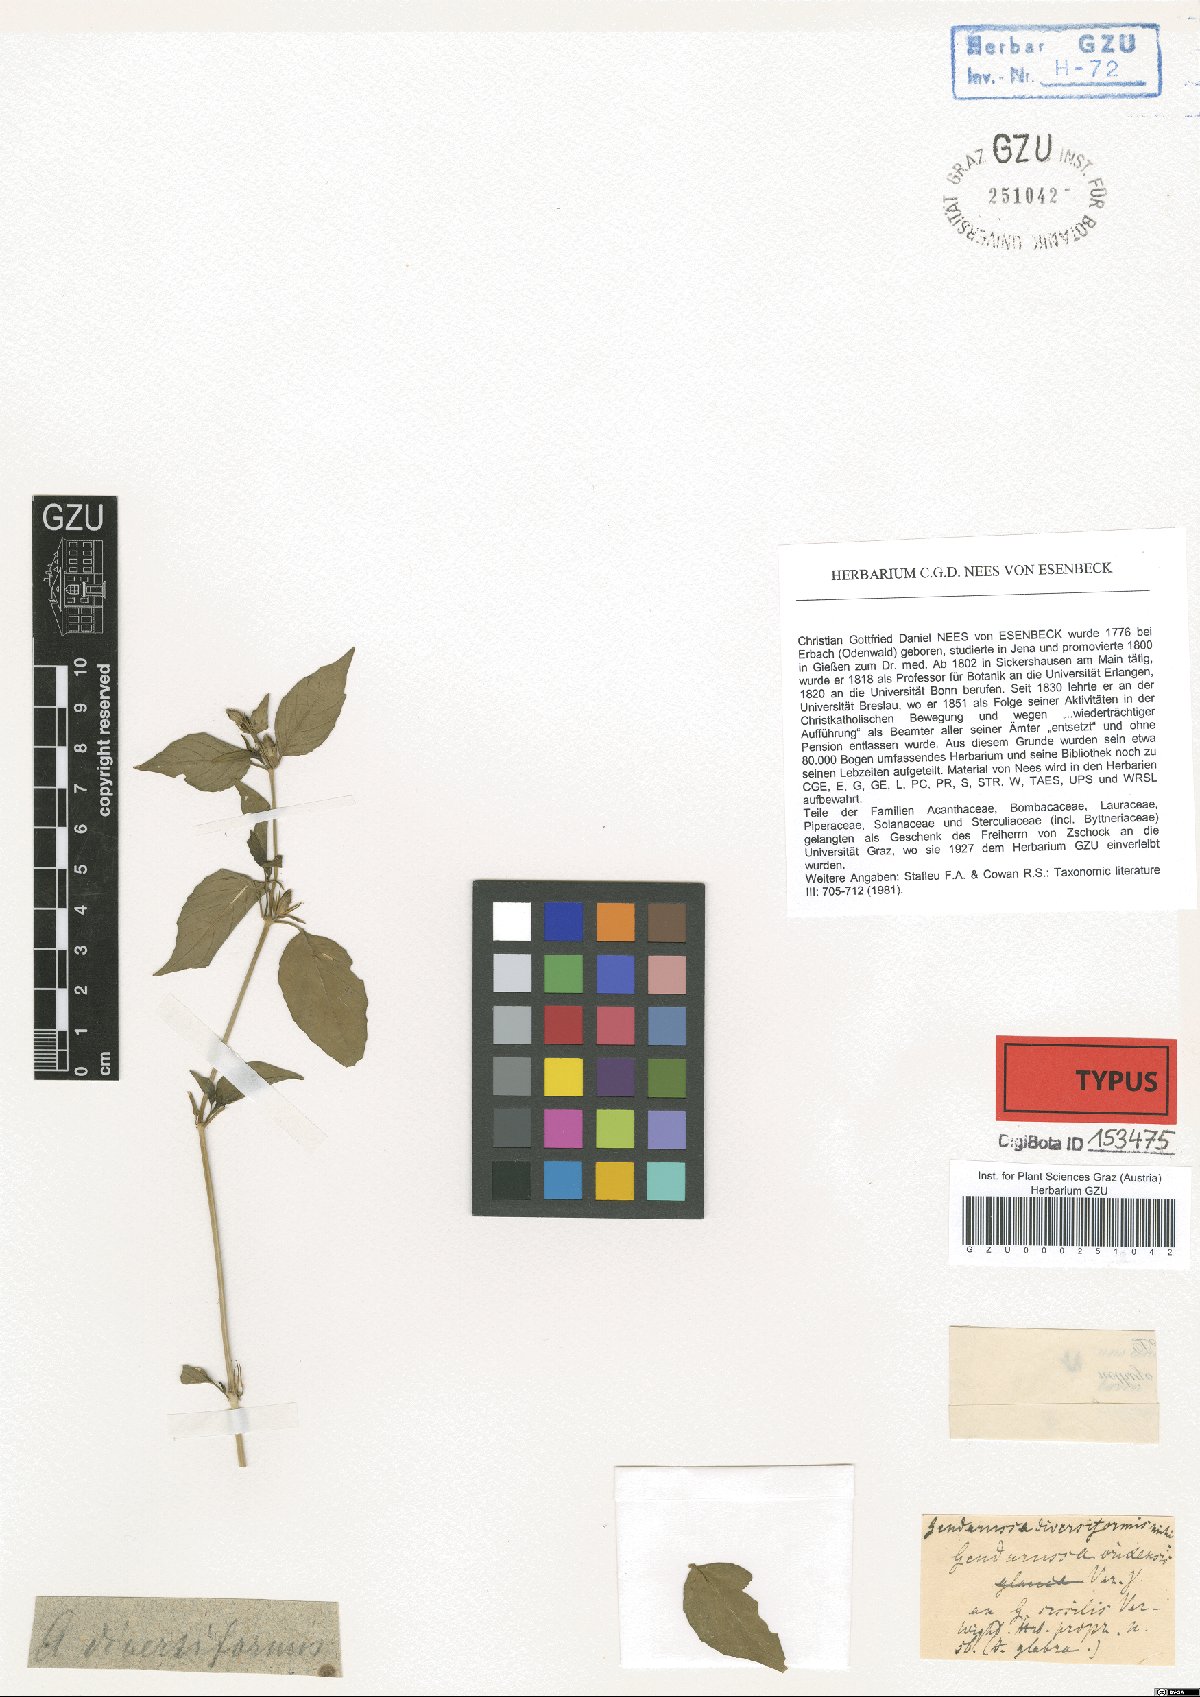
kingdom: Plantae
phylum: Tracheophyta
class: Magnoliopsida
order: Lamiales
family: Acanthaceae
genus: Justicia
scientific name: Justicia glauca
